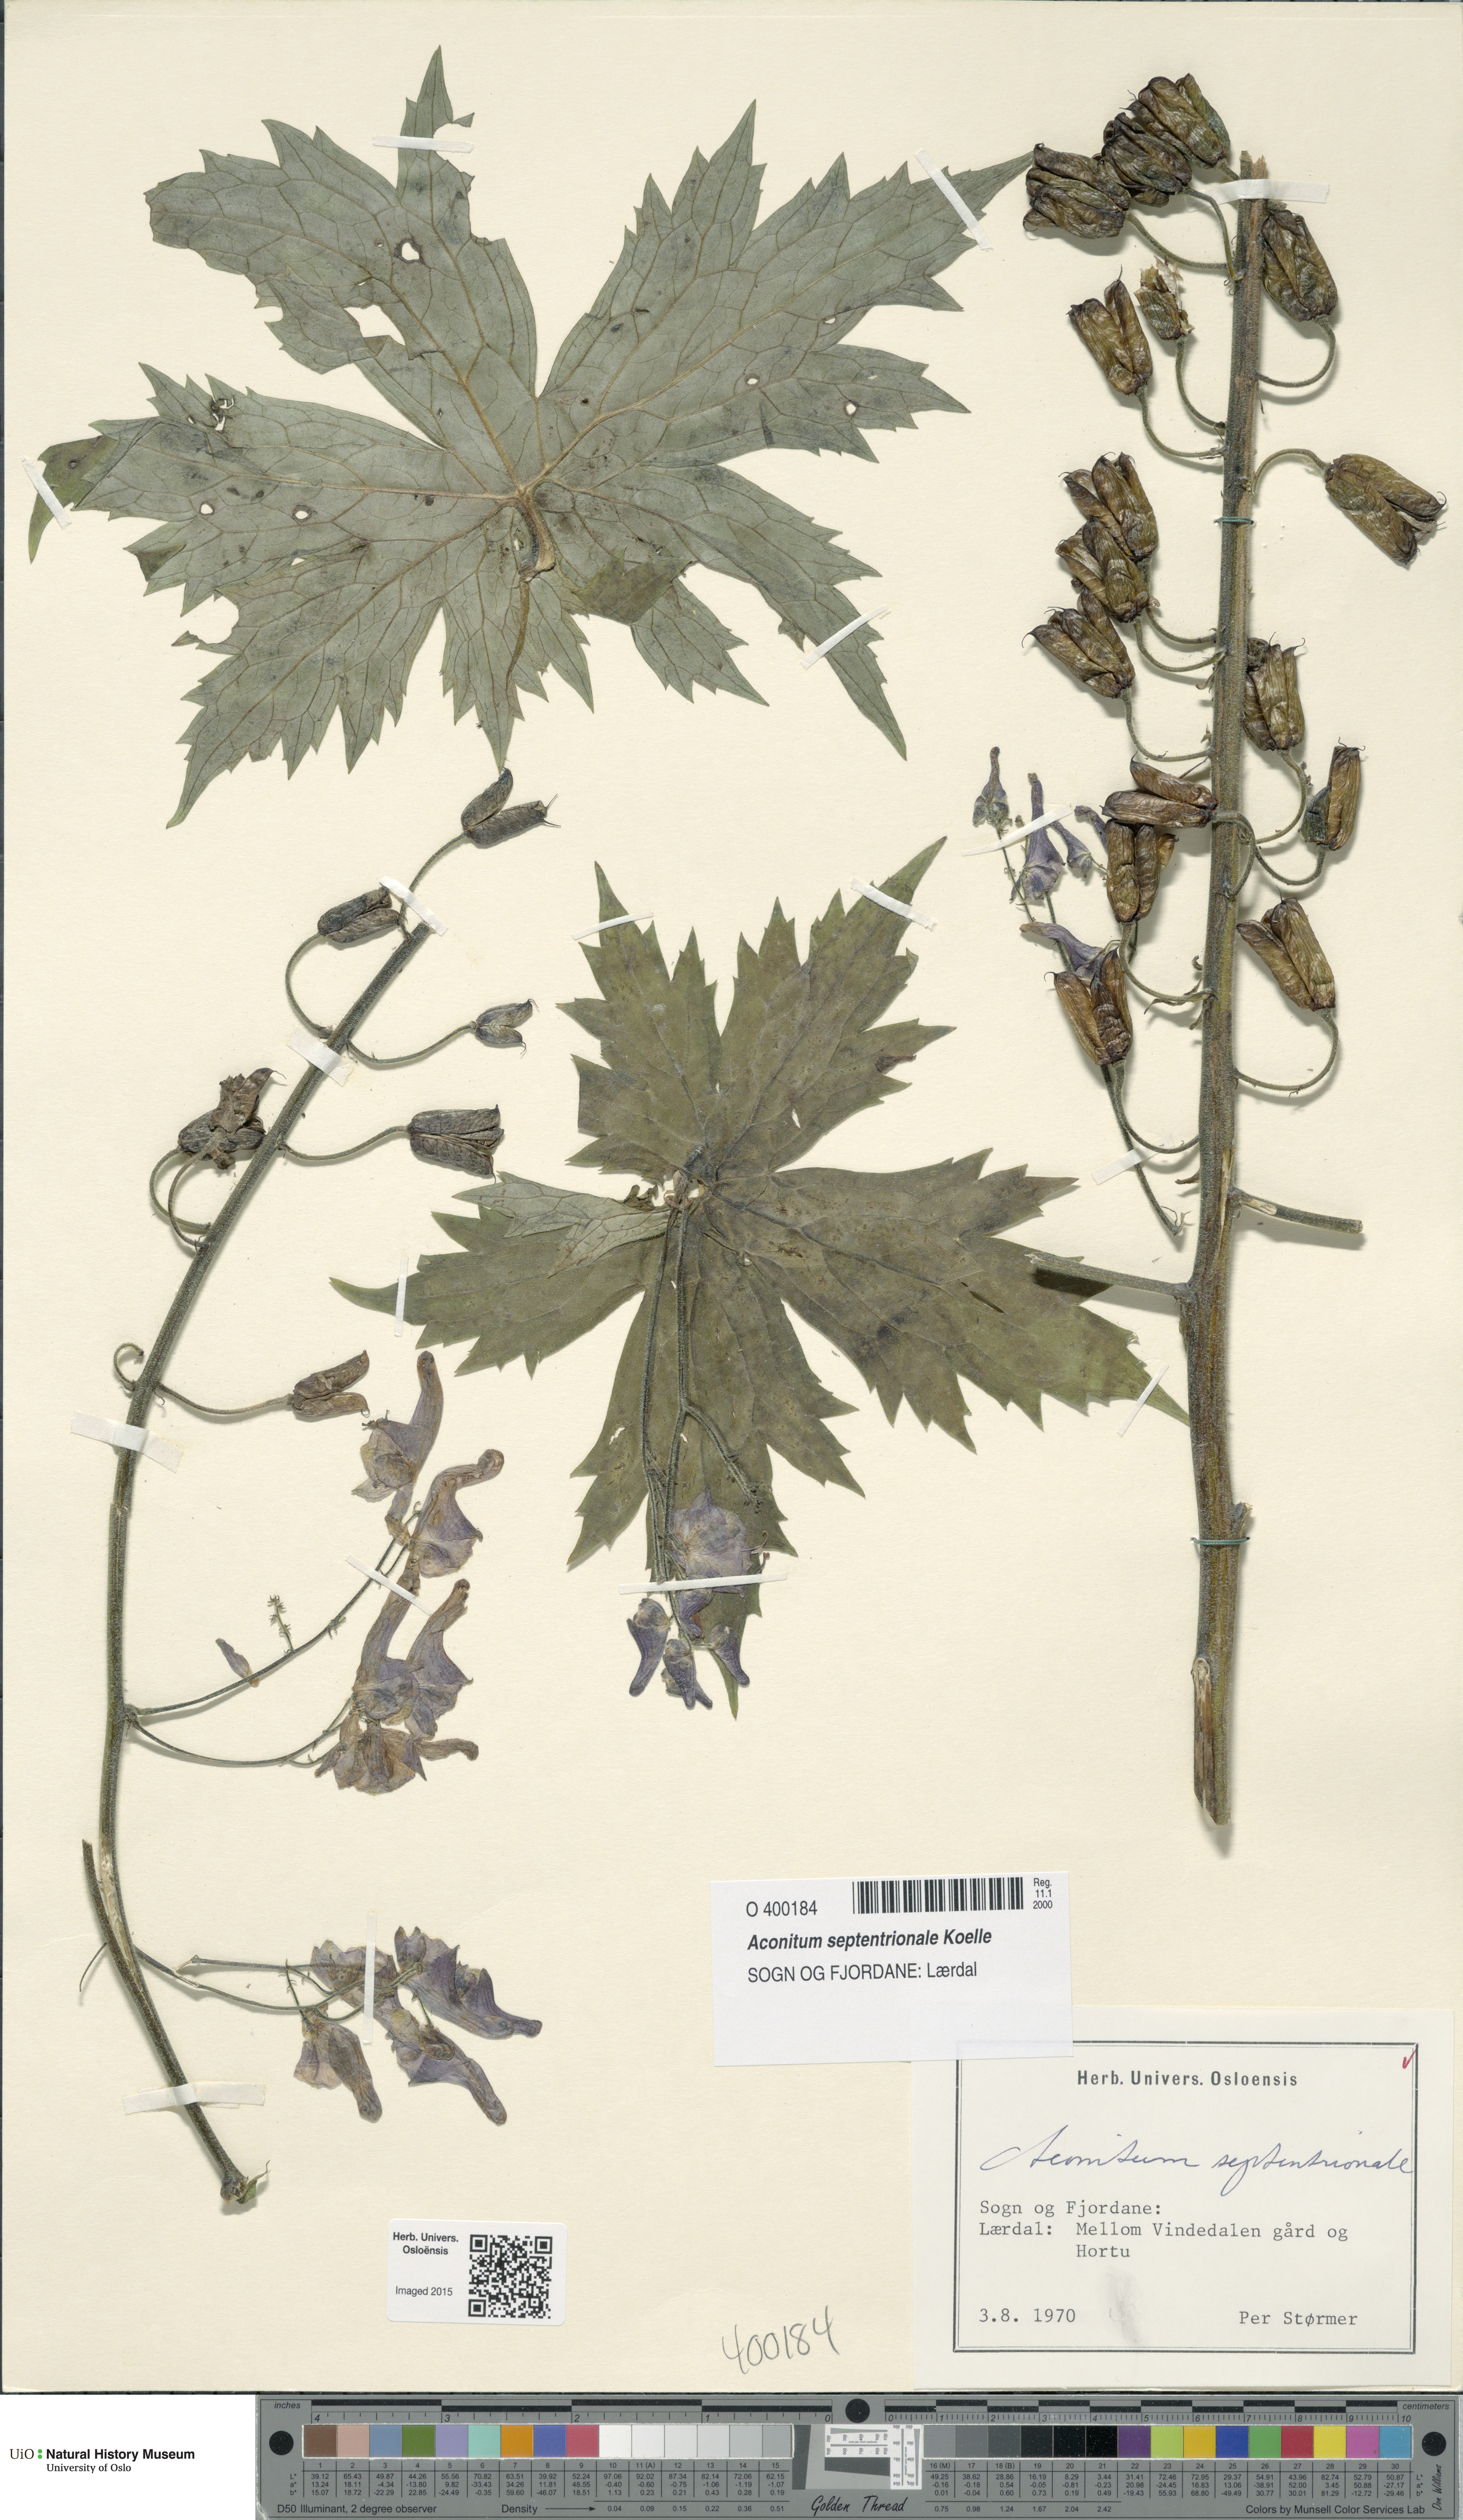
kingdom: Plantae
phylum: Tracheophyta
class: Magnoliopsida
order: Ranunculales
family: Ranunculaceae
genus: Aconitum
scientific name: Aconitum septentrionale
